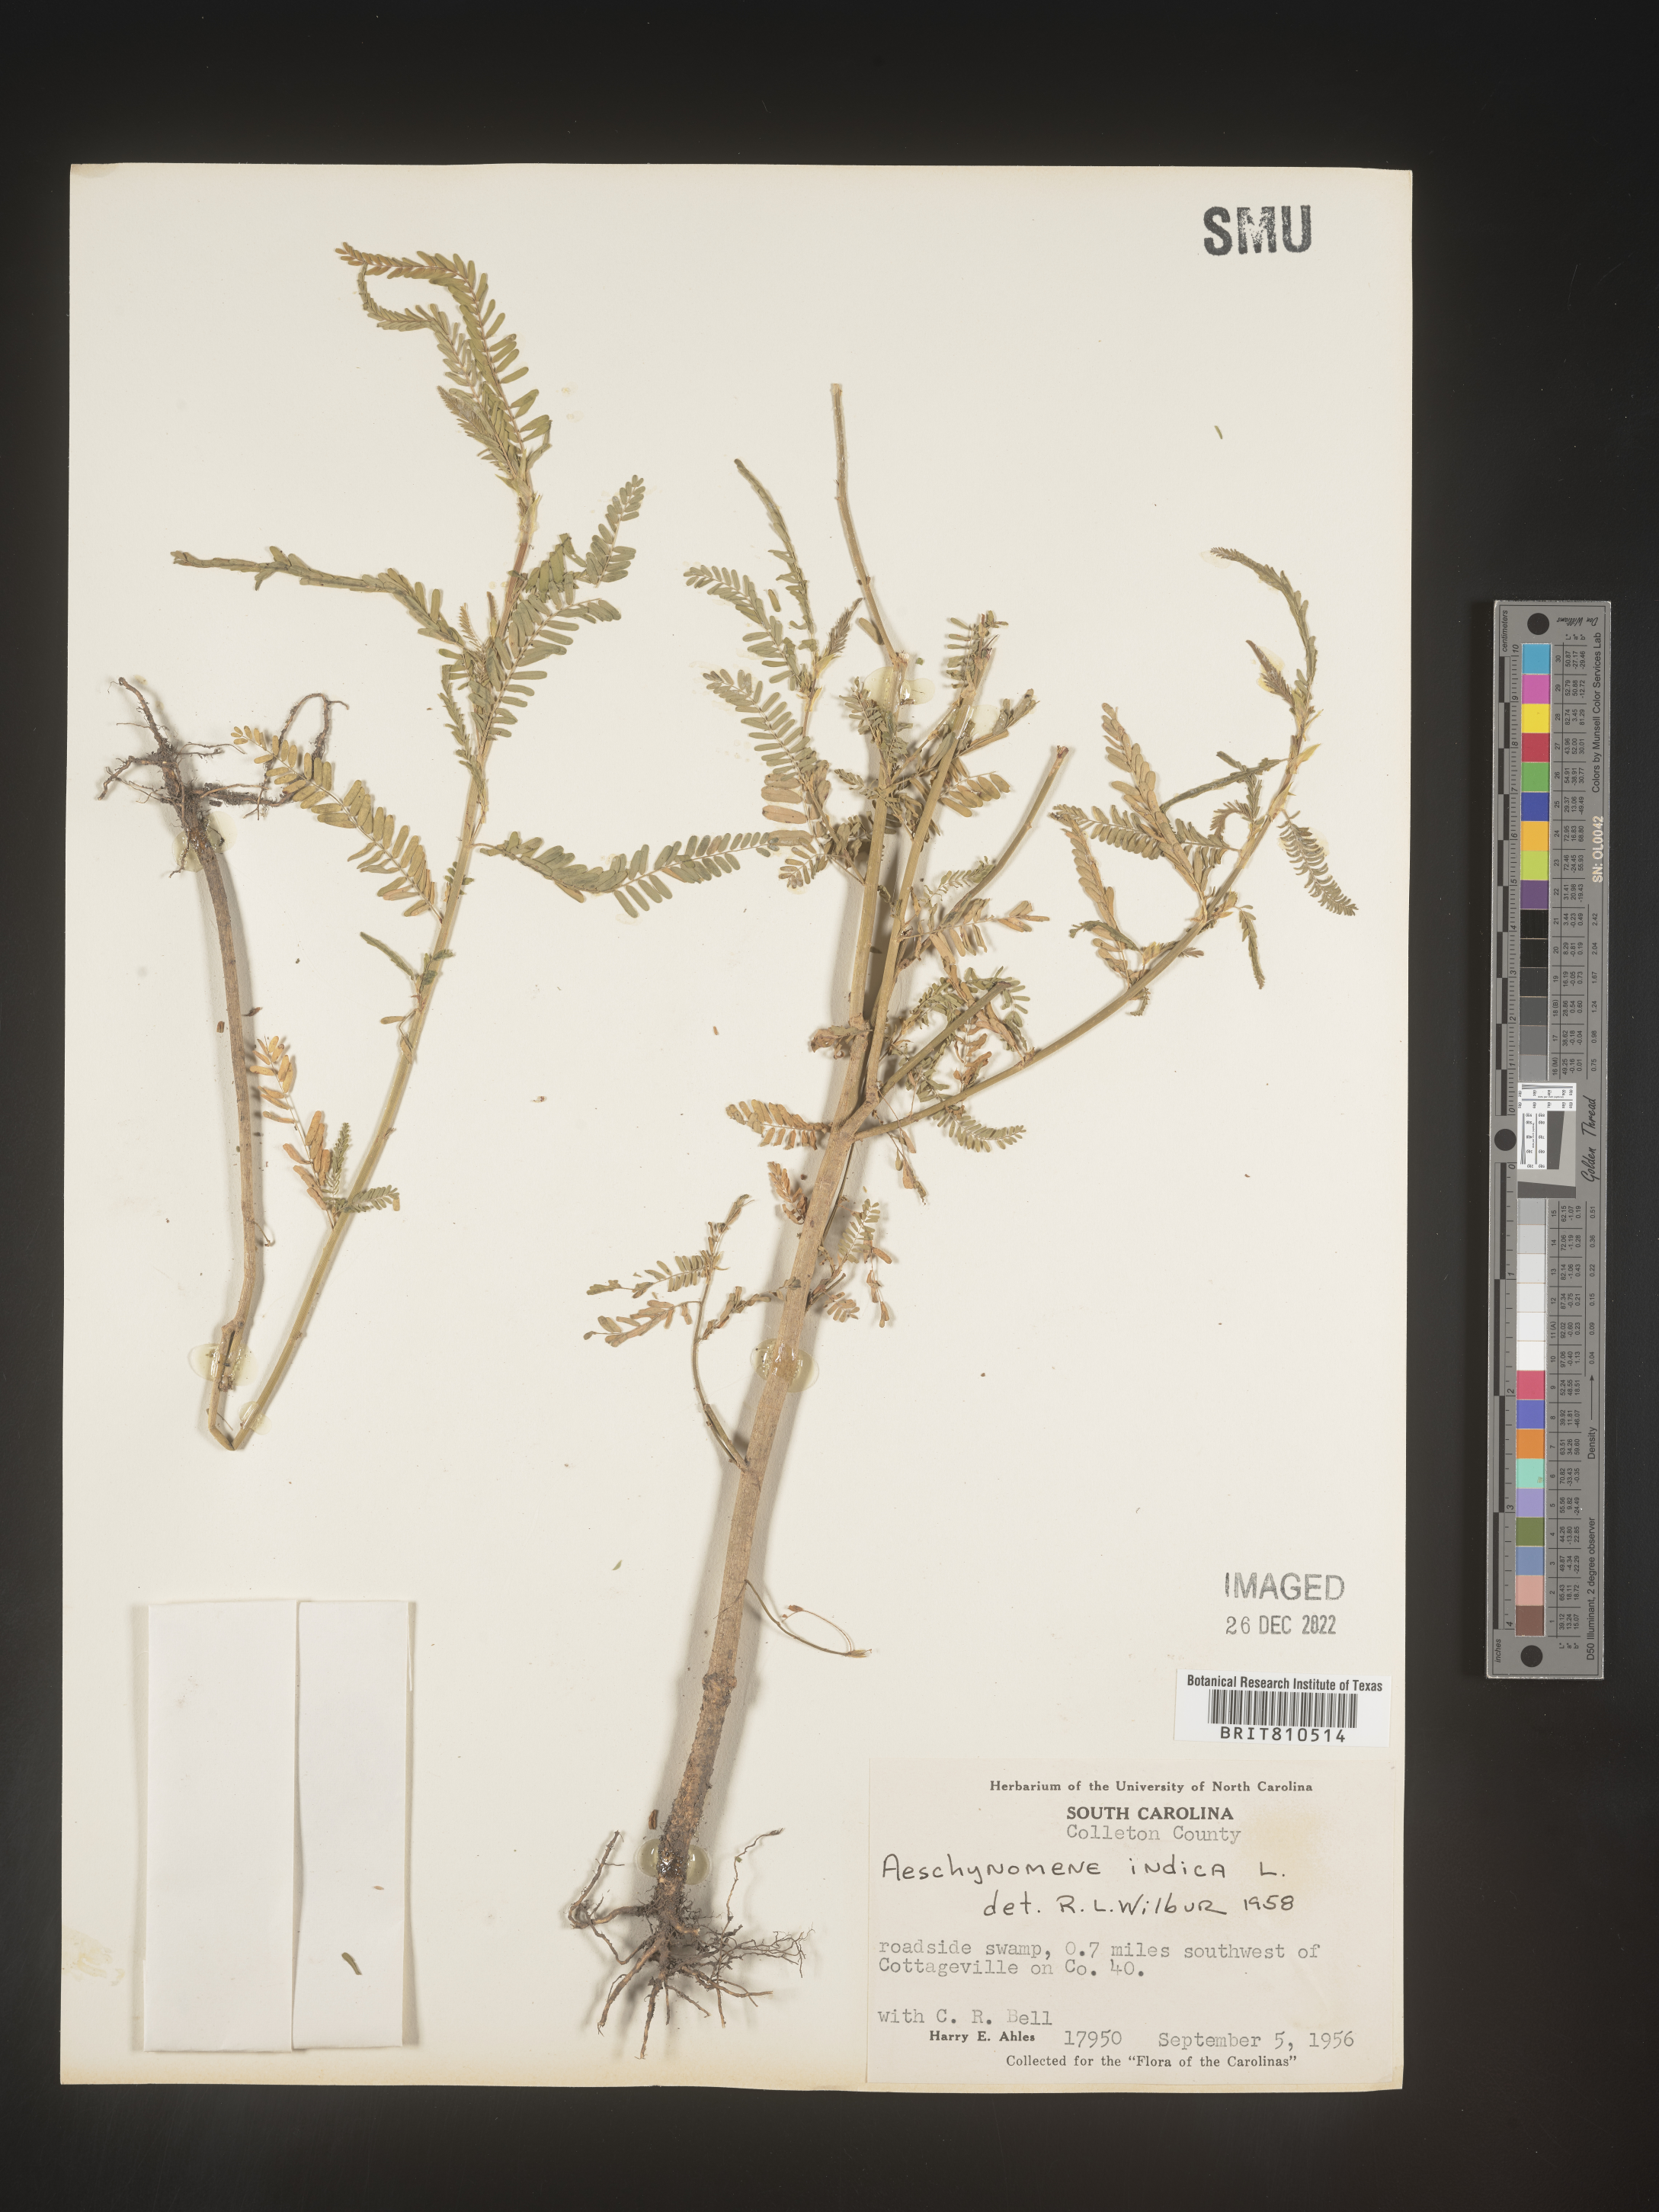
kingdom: Plantae
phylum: Tracheophyta
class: Magnoliopsida
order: Fabales
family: Fabaceae
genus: Aeschynomene
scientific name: Aeschynomene indica
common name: Indian jointvetch
